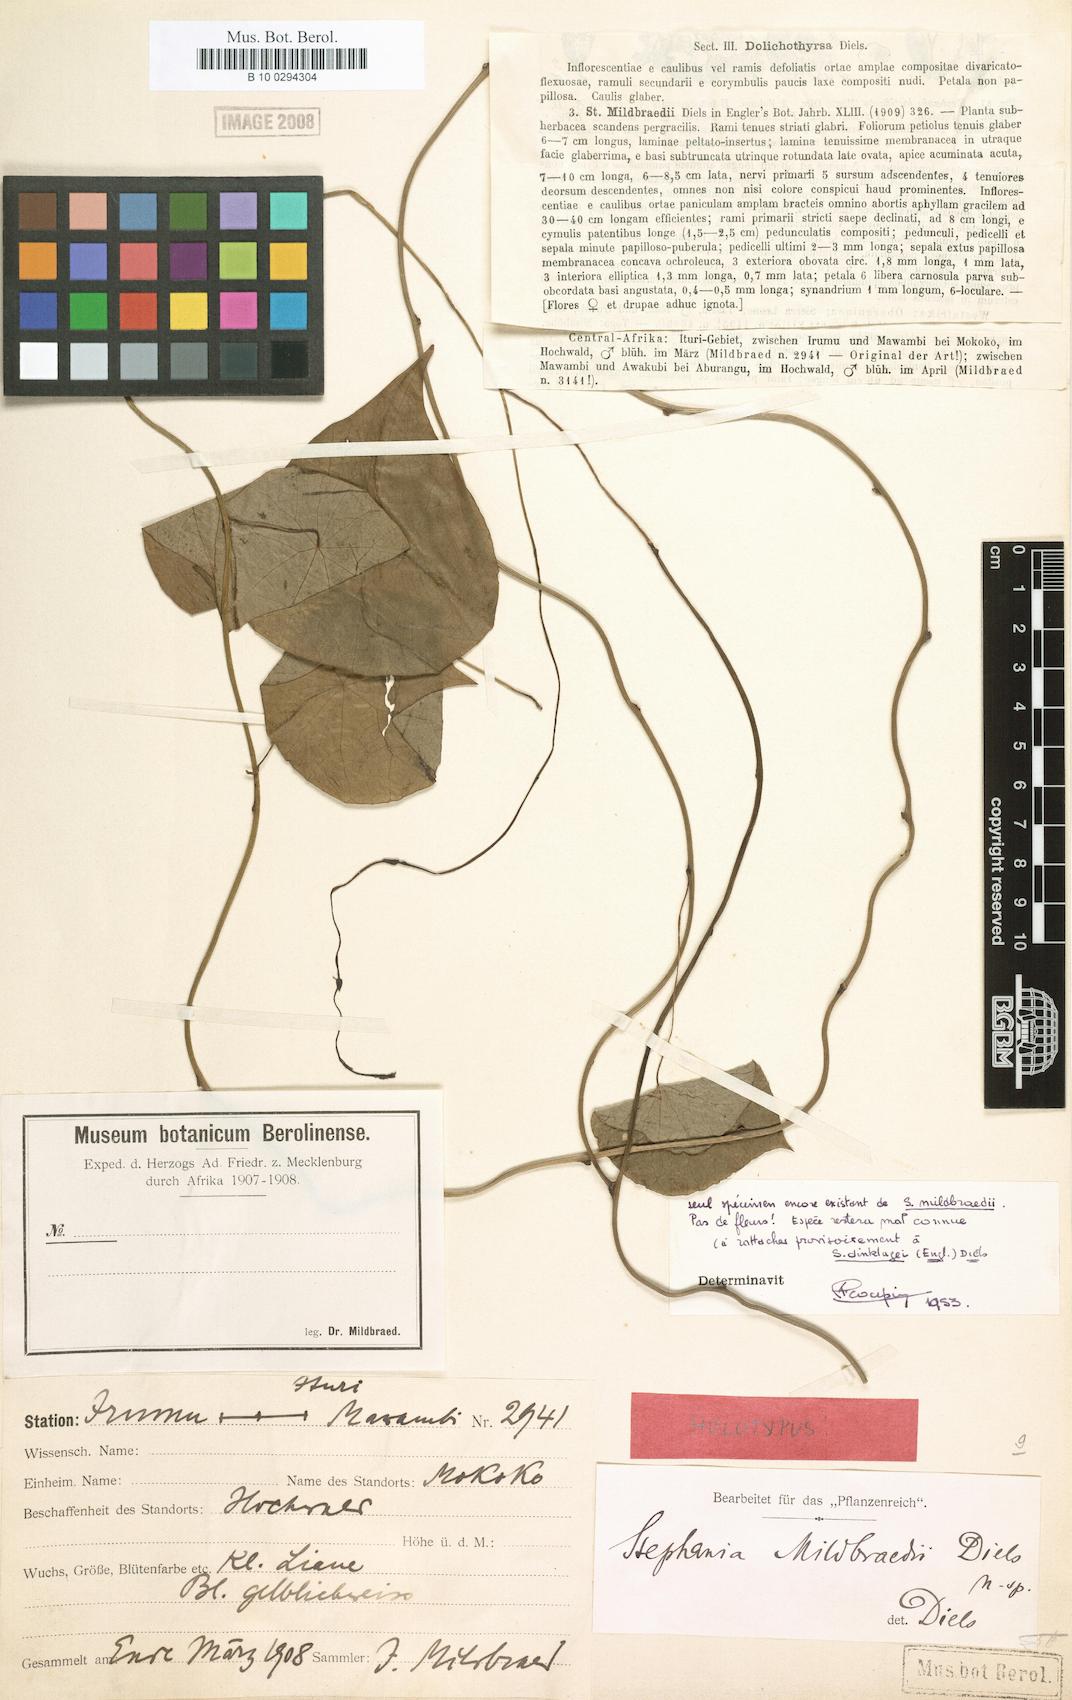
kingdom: Plantae
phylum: Tracheophyta
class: Magnoliopsida
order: Ranunculales
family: Menispermaceae
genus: Stephania
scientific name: Stephania mildbraedii
